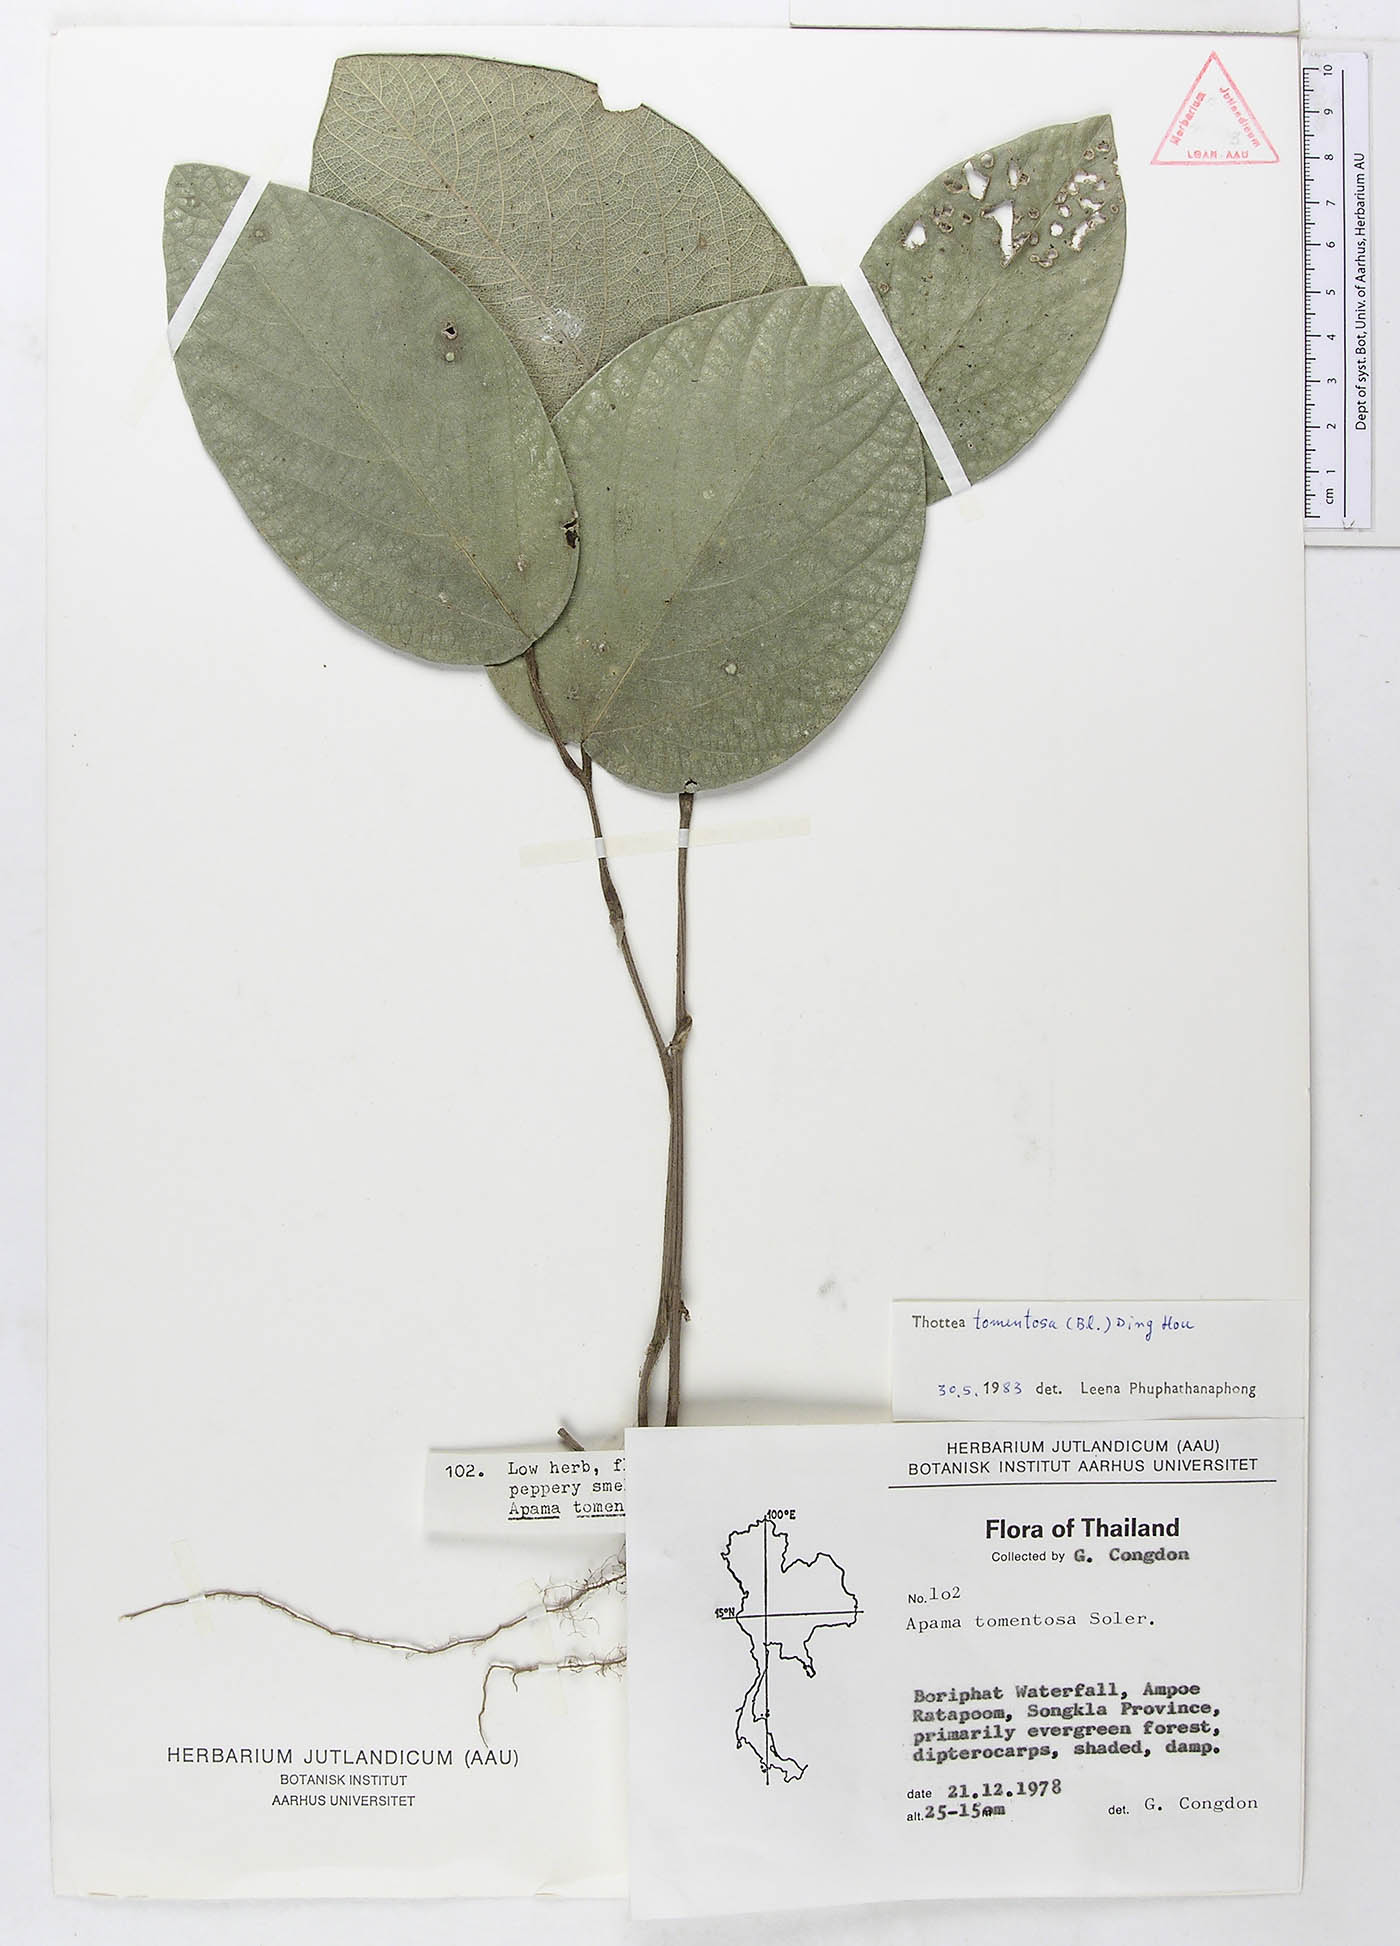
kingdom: Plantae
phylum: Tracheophyta
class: Magnoliopsida
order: Piperales
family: Aristolochiaceae
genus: Thottea
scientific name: Thottea tomentosa
